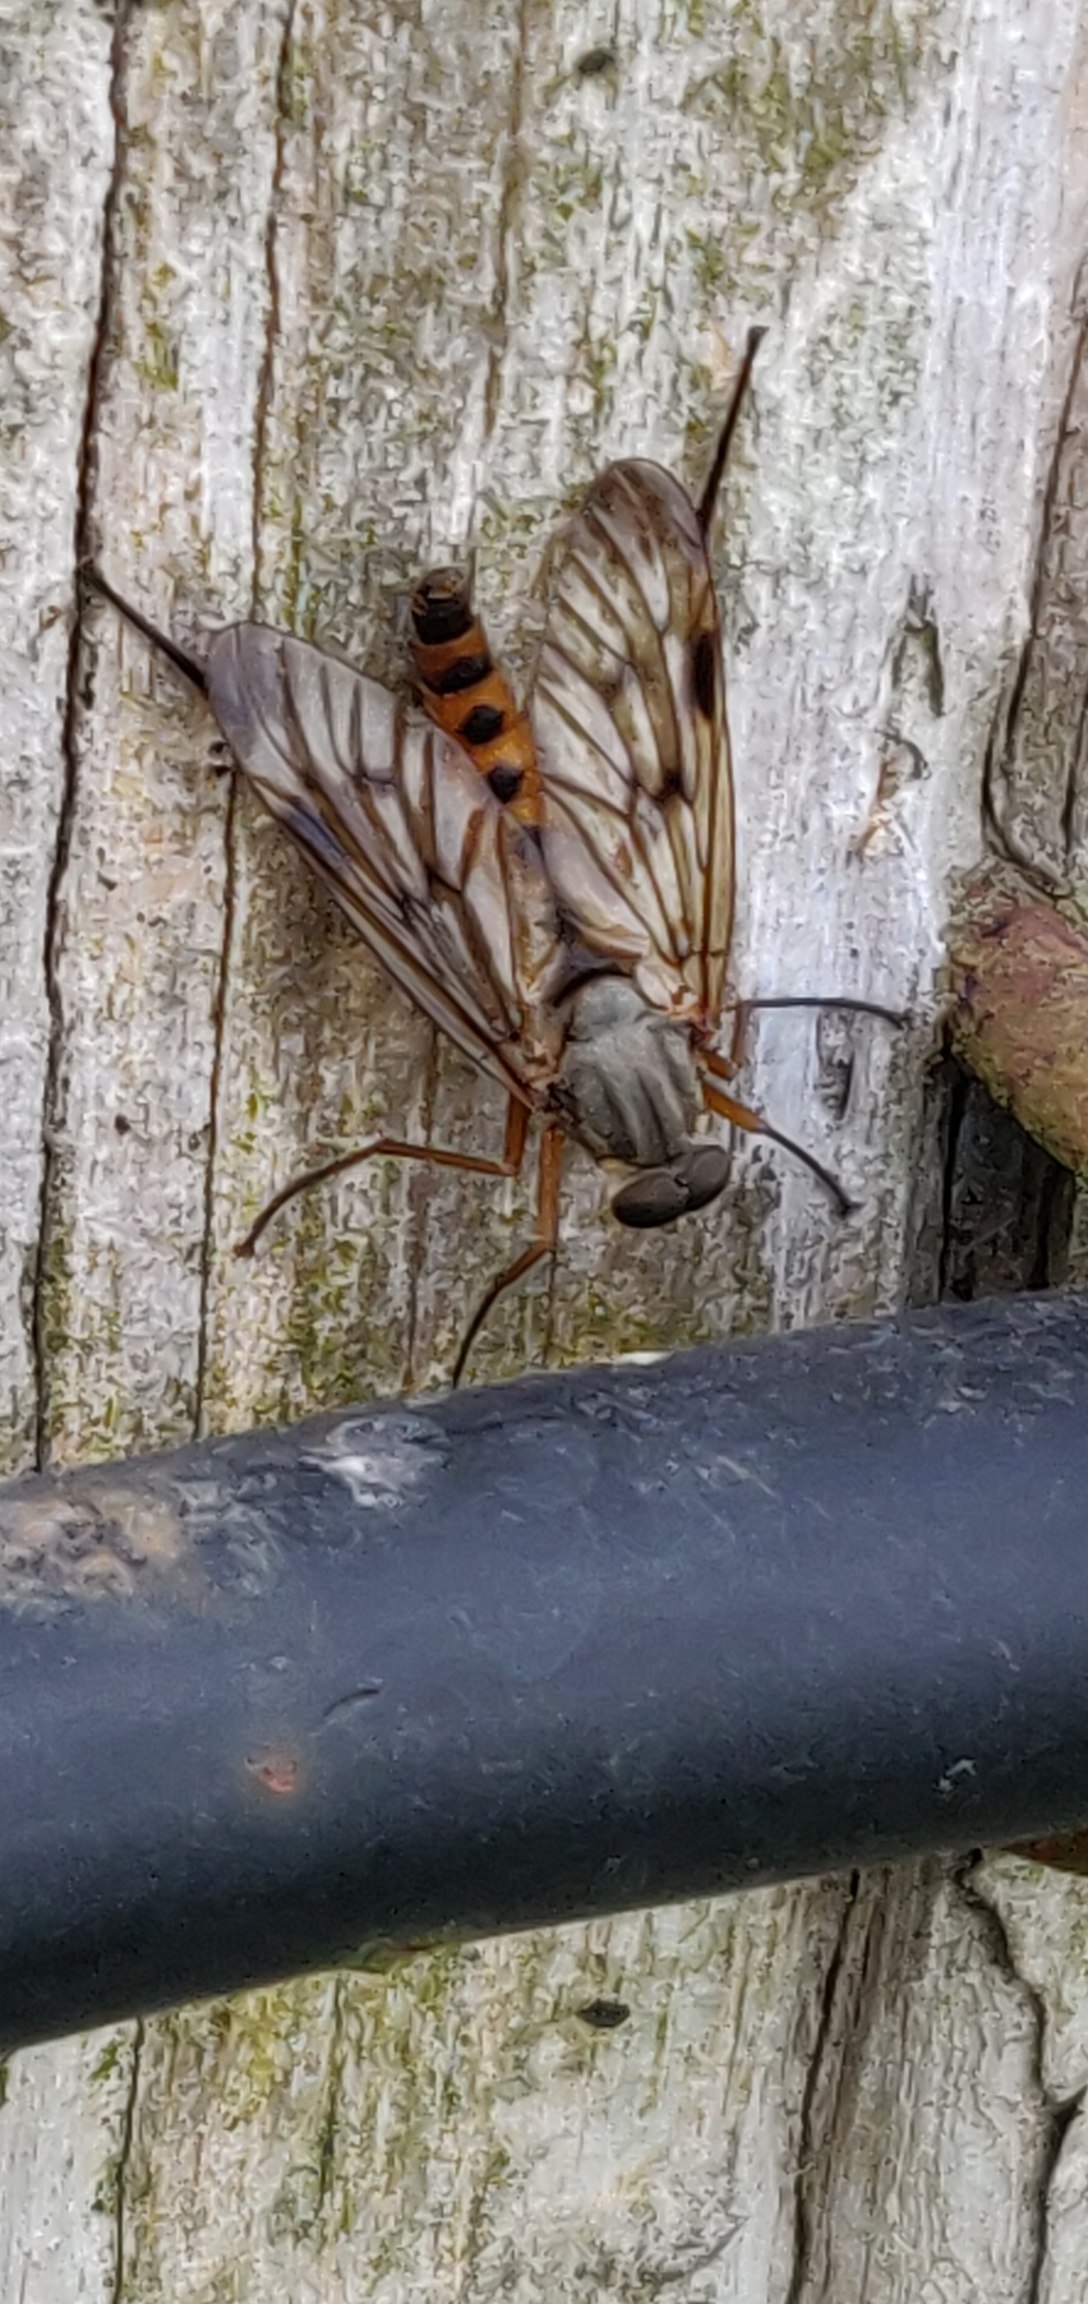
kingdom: Animalia
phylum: Arthropoda
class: Insecta
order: Diptera
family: Rhagionidae
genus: Rhagio
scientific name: Rhagio scolopacea
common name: Almindelig sneppeflue
